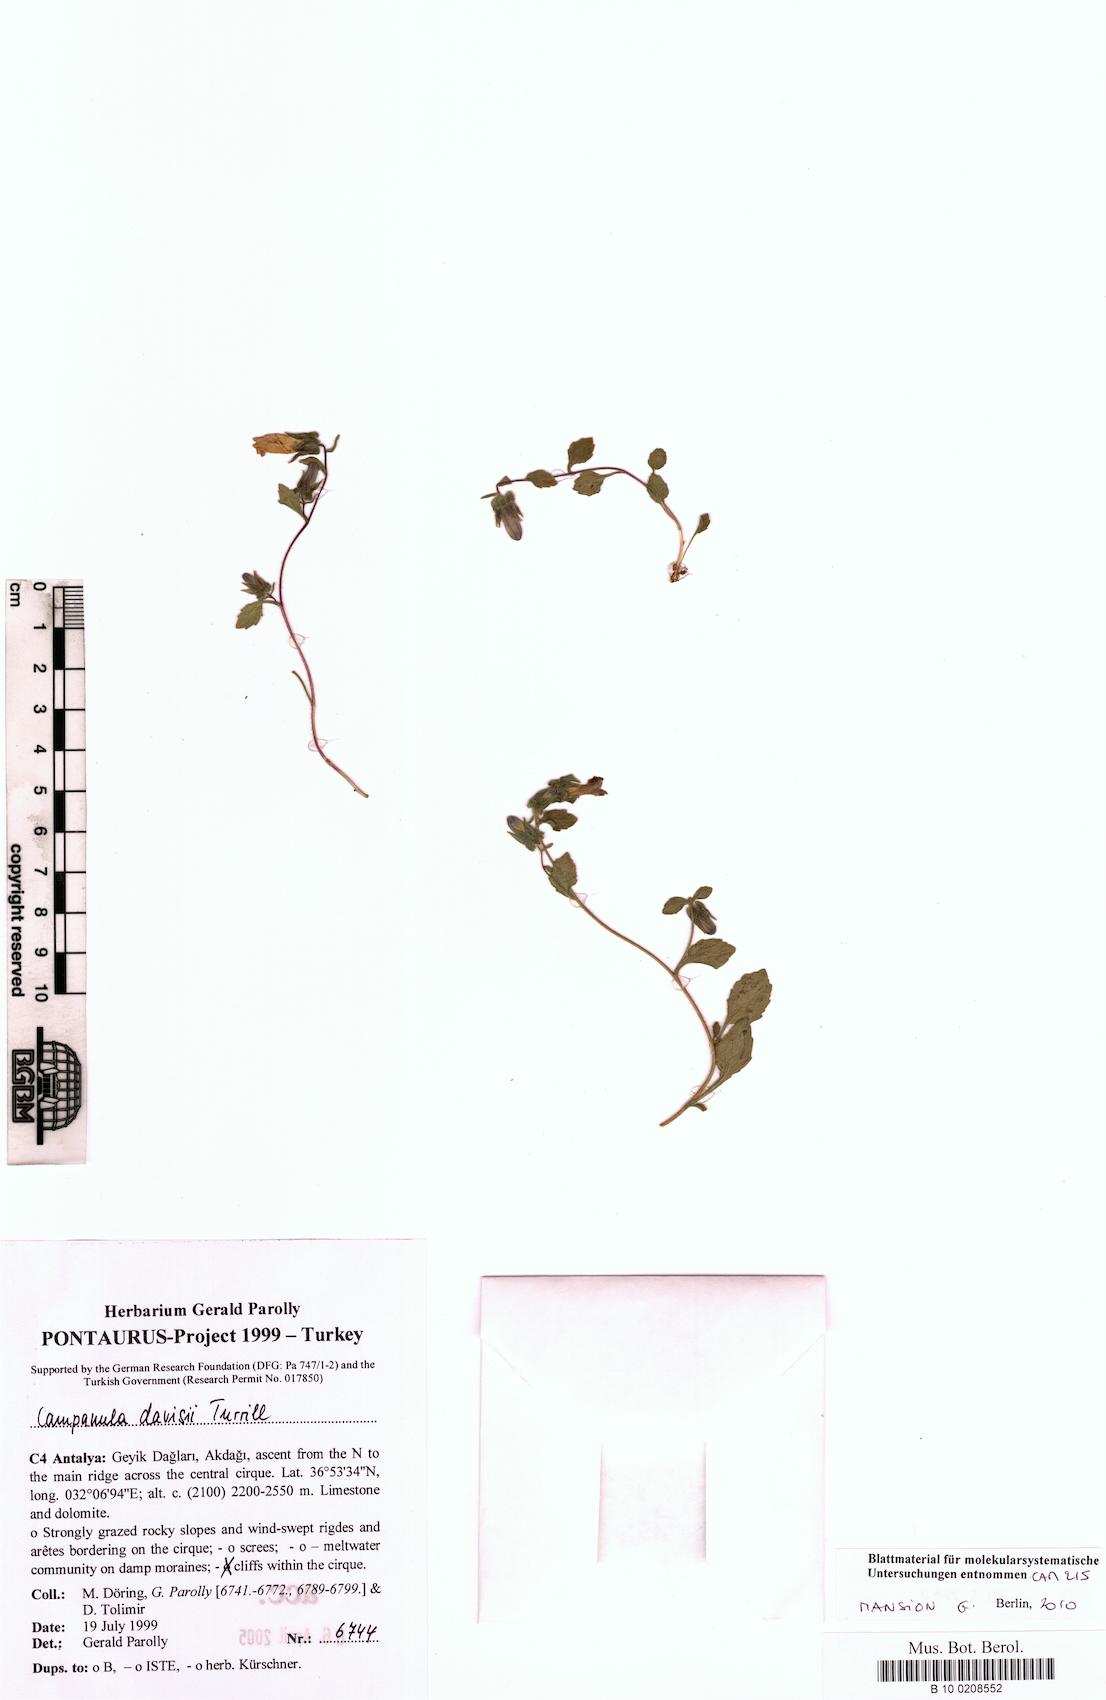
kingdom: Plantae
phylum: Tracheophyta
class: Magnoliopsida
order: Asterales
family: Campanulaceae
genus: Campanula
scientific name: Campanula davisii
